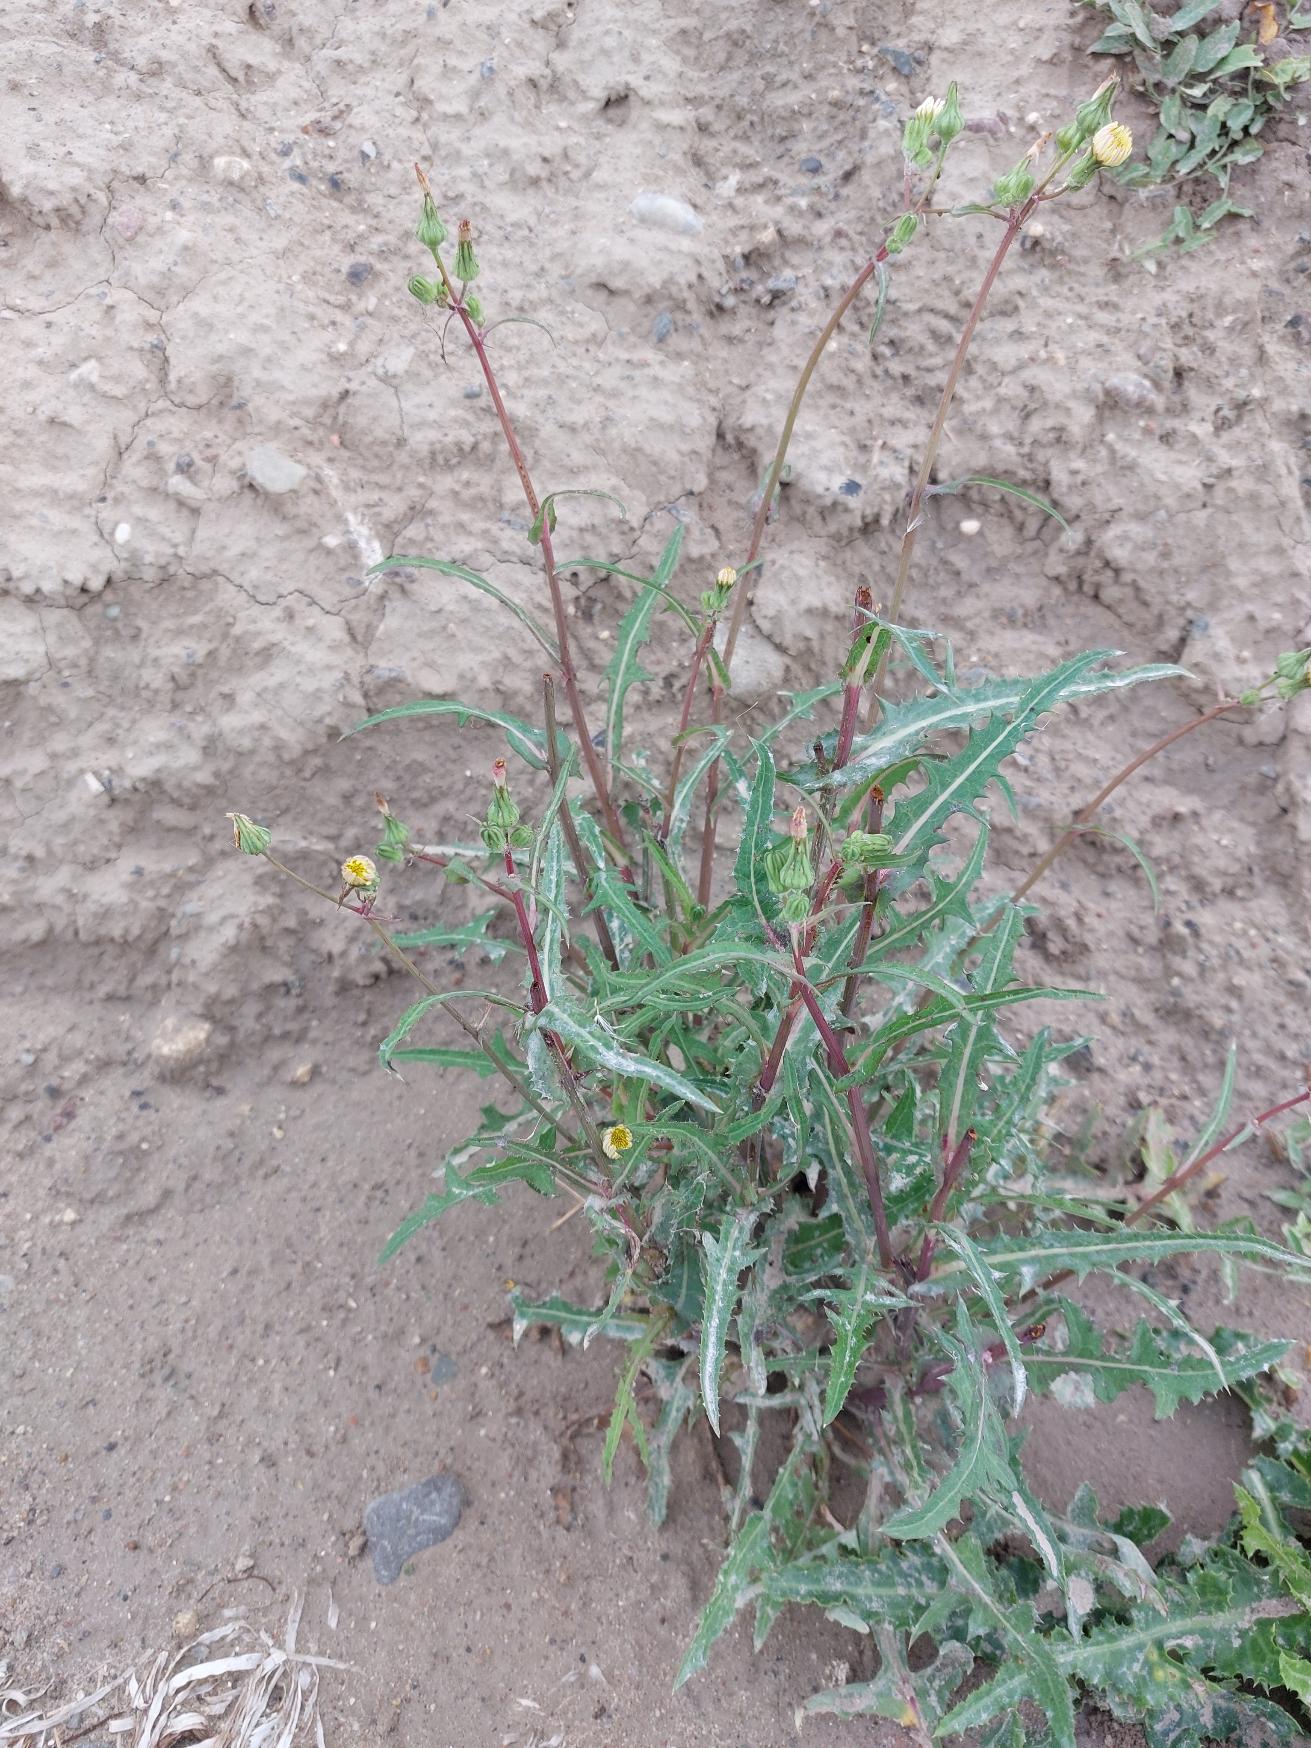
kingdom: Plantae
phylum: Tracheophyta
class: Magnoliopsida
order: Asterales
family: Asteraceae
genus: Sonchus
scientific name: Sonchus oleraceus
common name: Almindelig svinemælk
